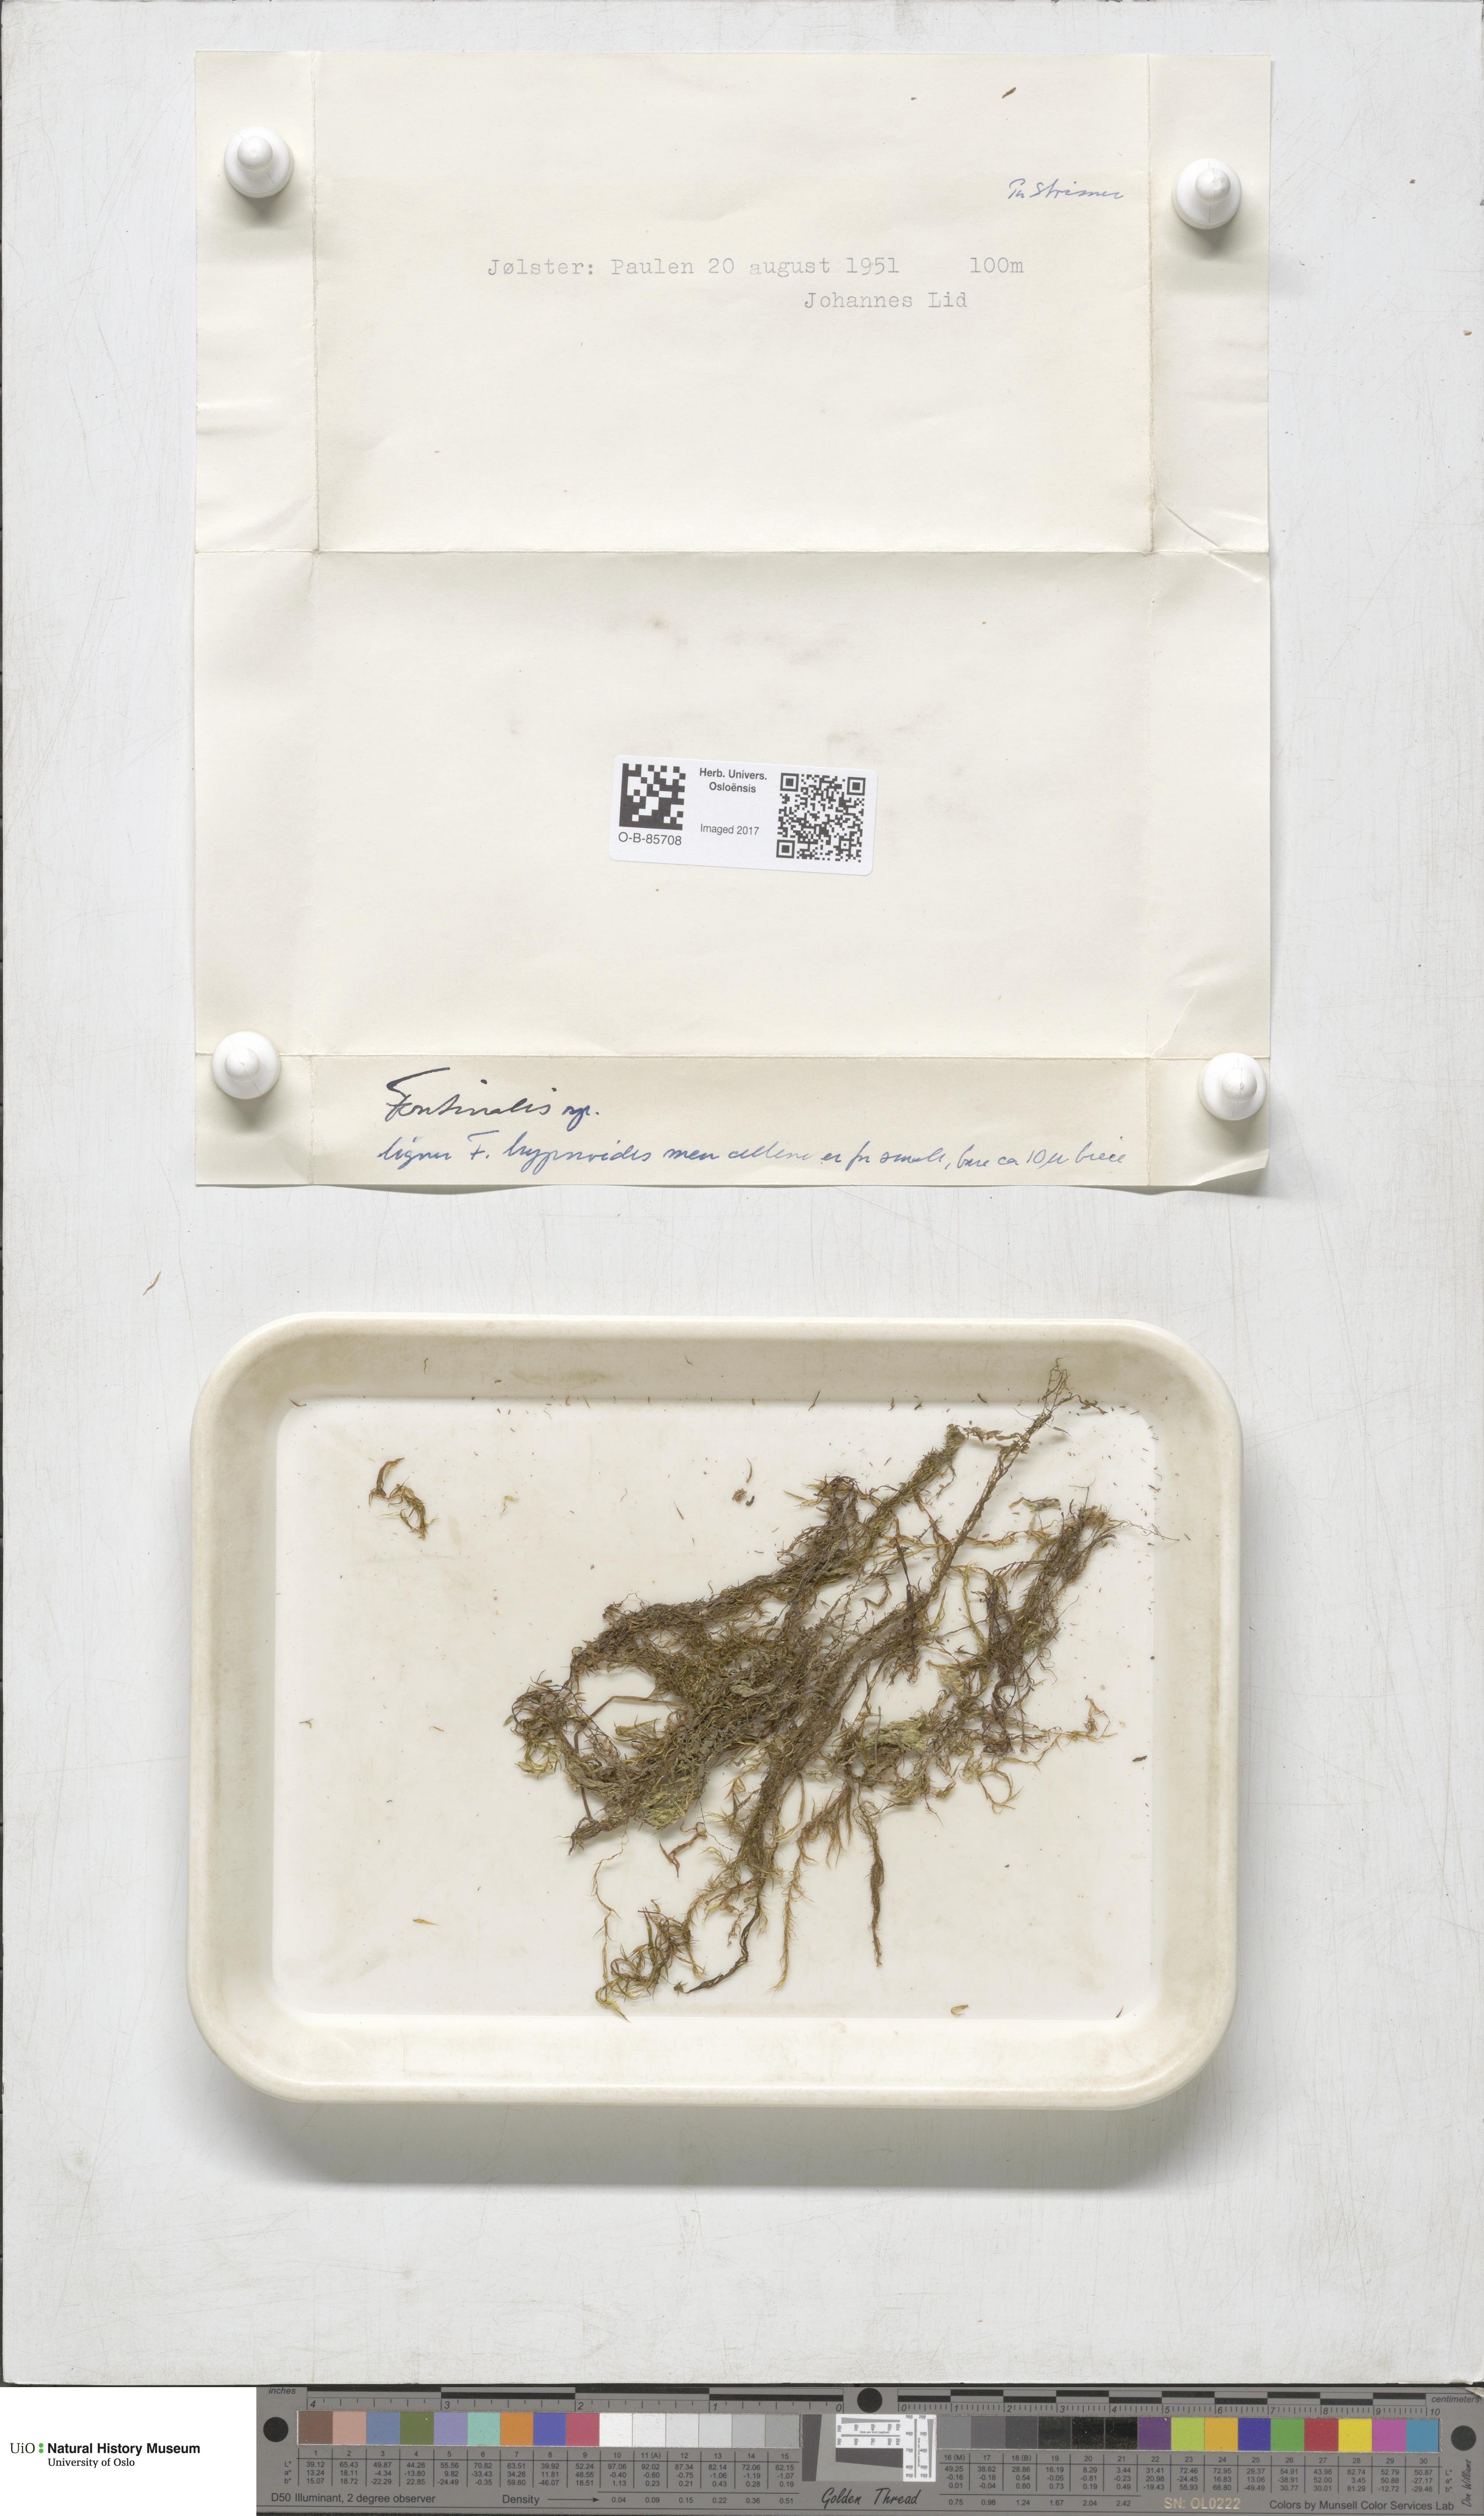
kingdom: Plantae
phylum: Bryophyta
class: Bryopsida
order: Hypnales
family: Fontinalaceae
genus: Fontinalis
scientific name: Fontinalis
